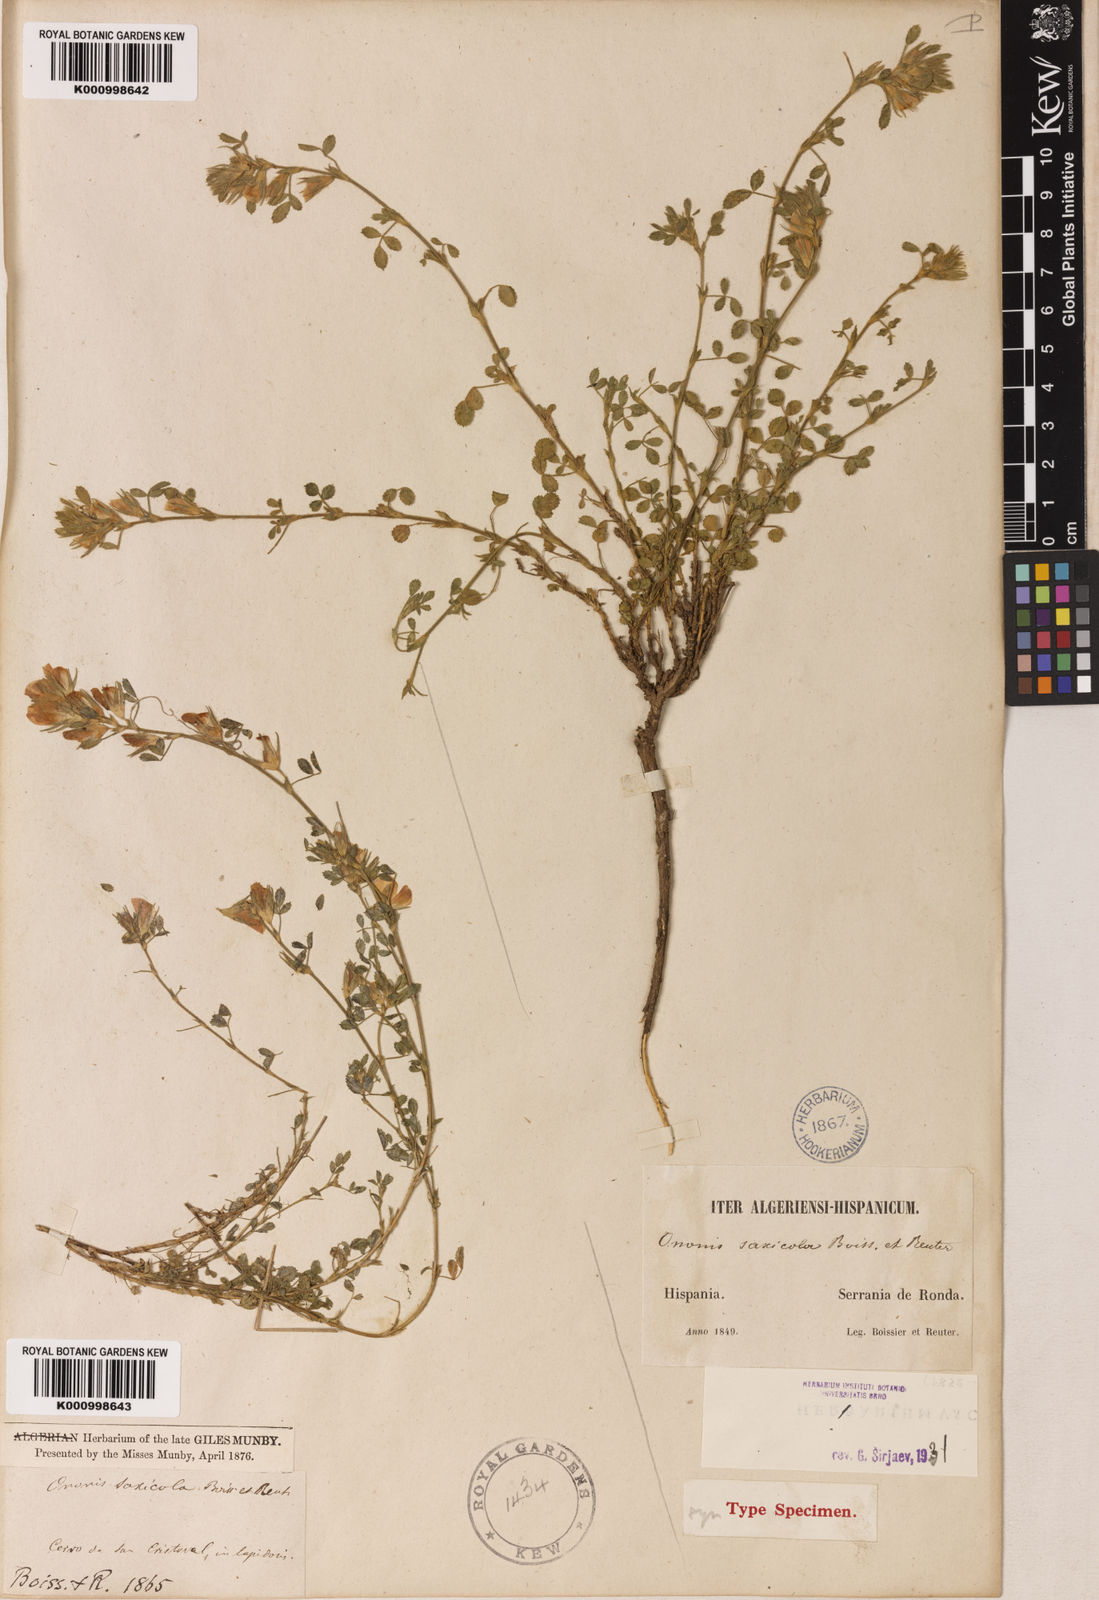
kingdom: Plantae
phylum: Tracheophyta
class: Magnoliopsida
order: Fabales
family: Fabaceae
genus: Ononis
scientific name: Ononis pusilla
